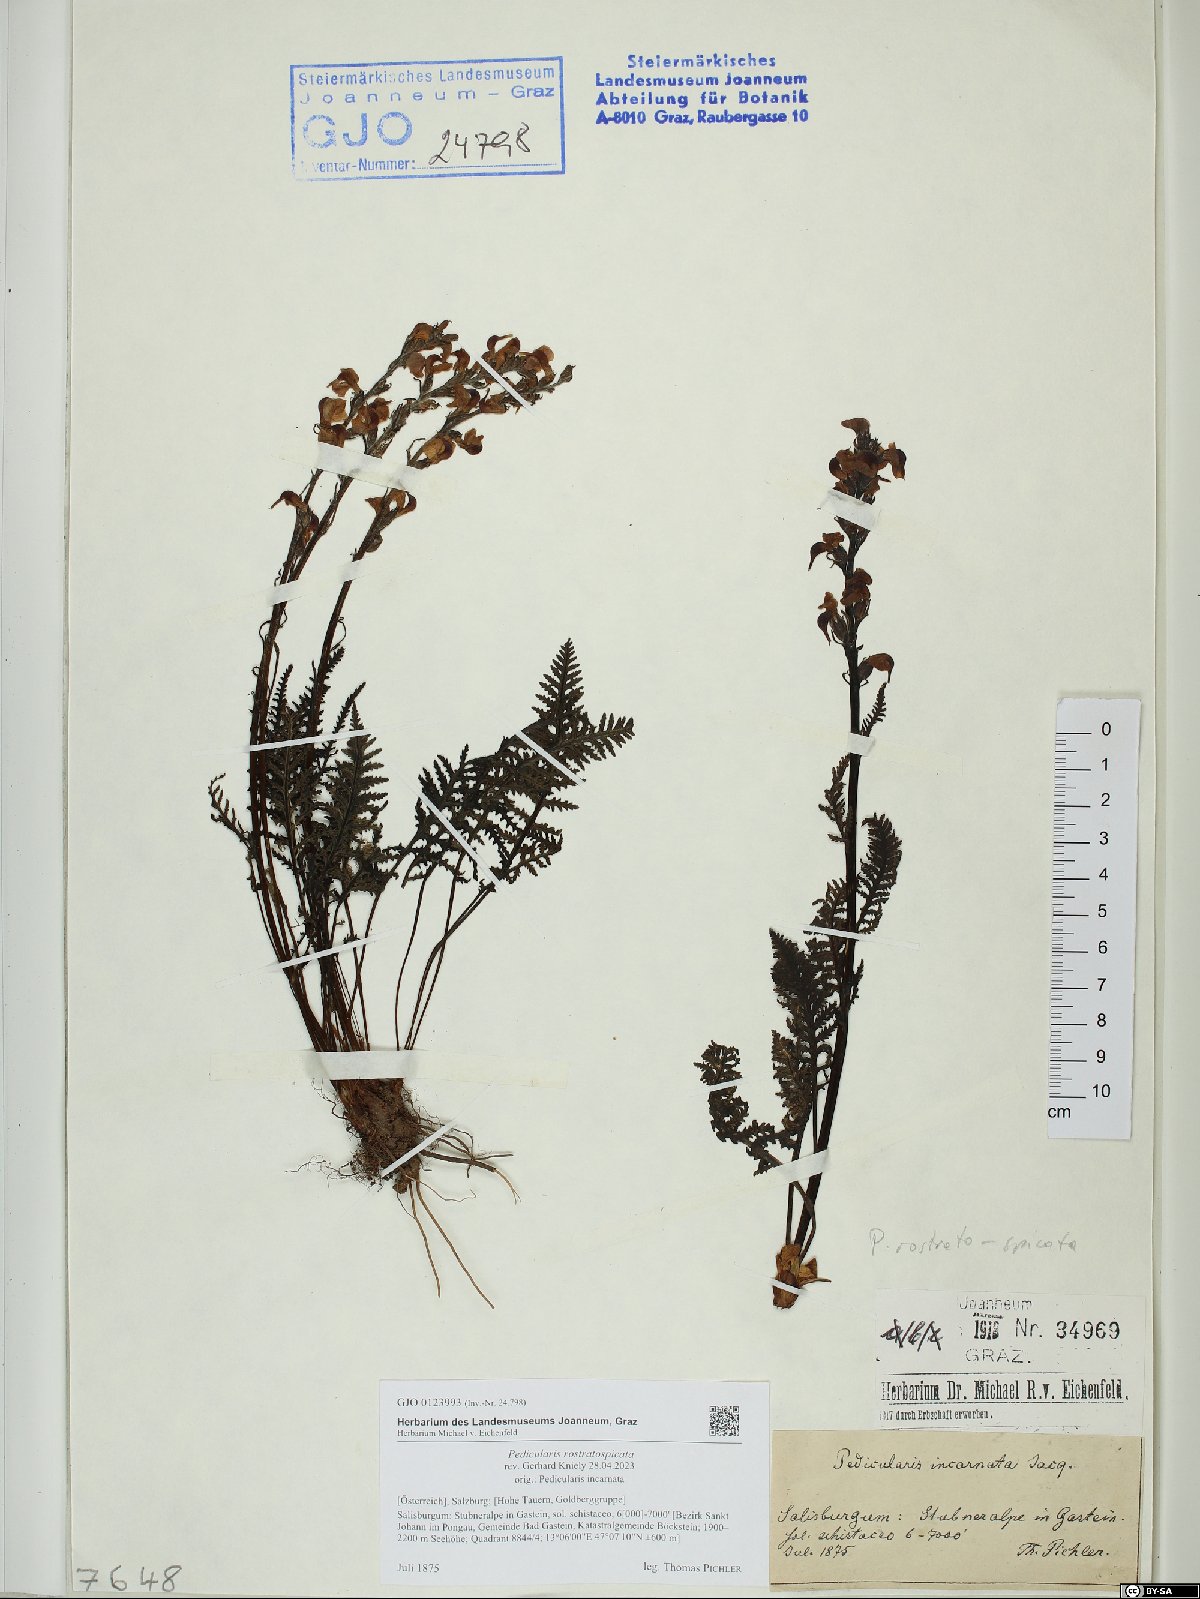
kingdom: Plantae
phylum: Tracheophyta
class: Magnoliopsida
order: Lamiales
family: Orobanchaceae
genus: Pedicularis
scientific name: Pedicularis rostratospicata
